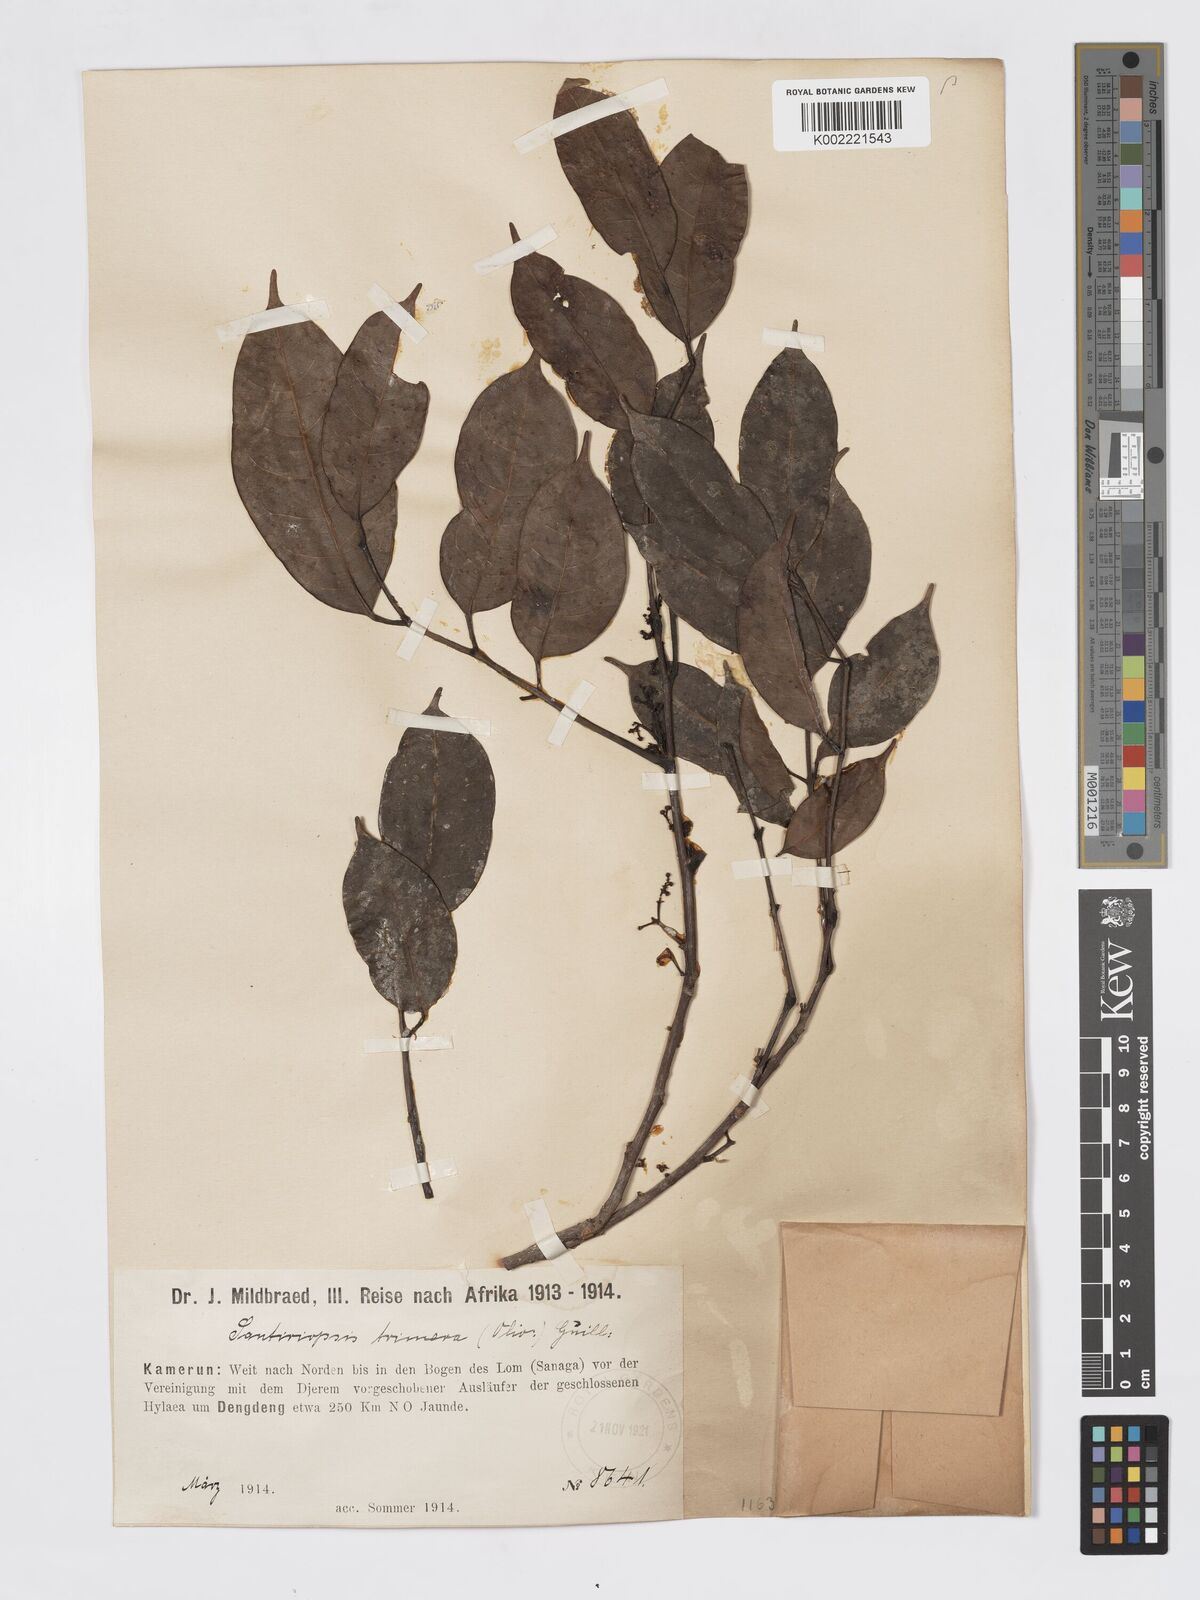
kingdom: Plantae
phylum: Tracheophyta
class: Magnoliopsida
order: Sapindales
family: Burseraceae
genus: Pachylobus
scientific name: Pachylobus trimerus
